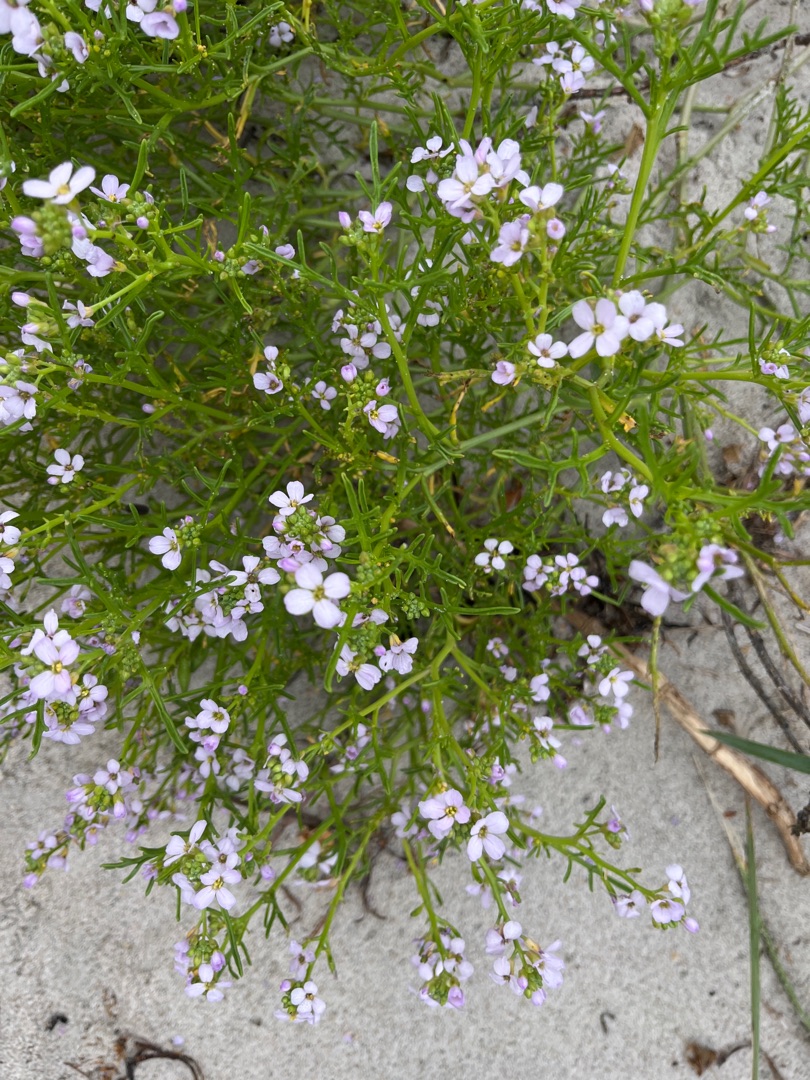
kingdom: Plantae
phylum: Tracheophyta
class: Magnoliopsida
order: Brassicales
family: Brassicaceae
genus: Cakile
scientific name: Cakile maritima
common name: Strandsennep
